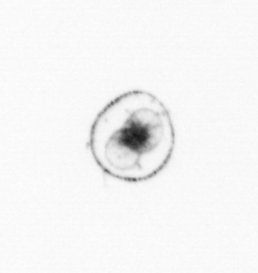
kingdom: Chromista
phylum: Myzozoa
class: Dinophyceae
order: Noctilucales
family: Noctilucaceae
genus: Noctiluca
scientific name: Noctiluca scintillans
